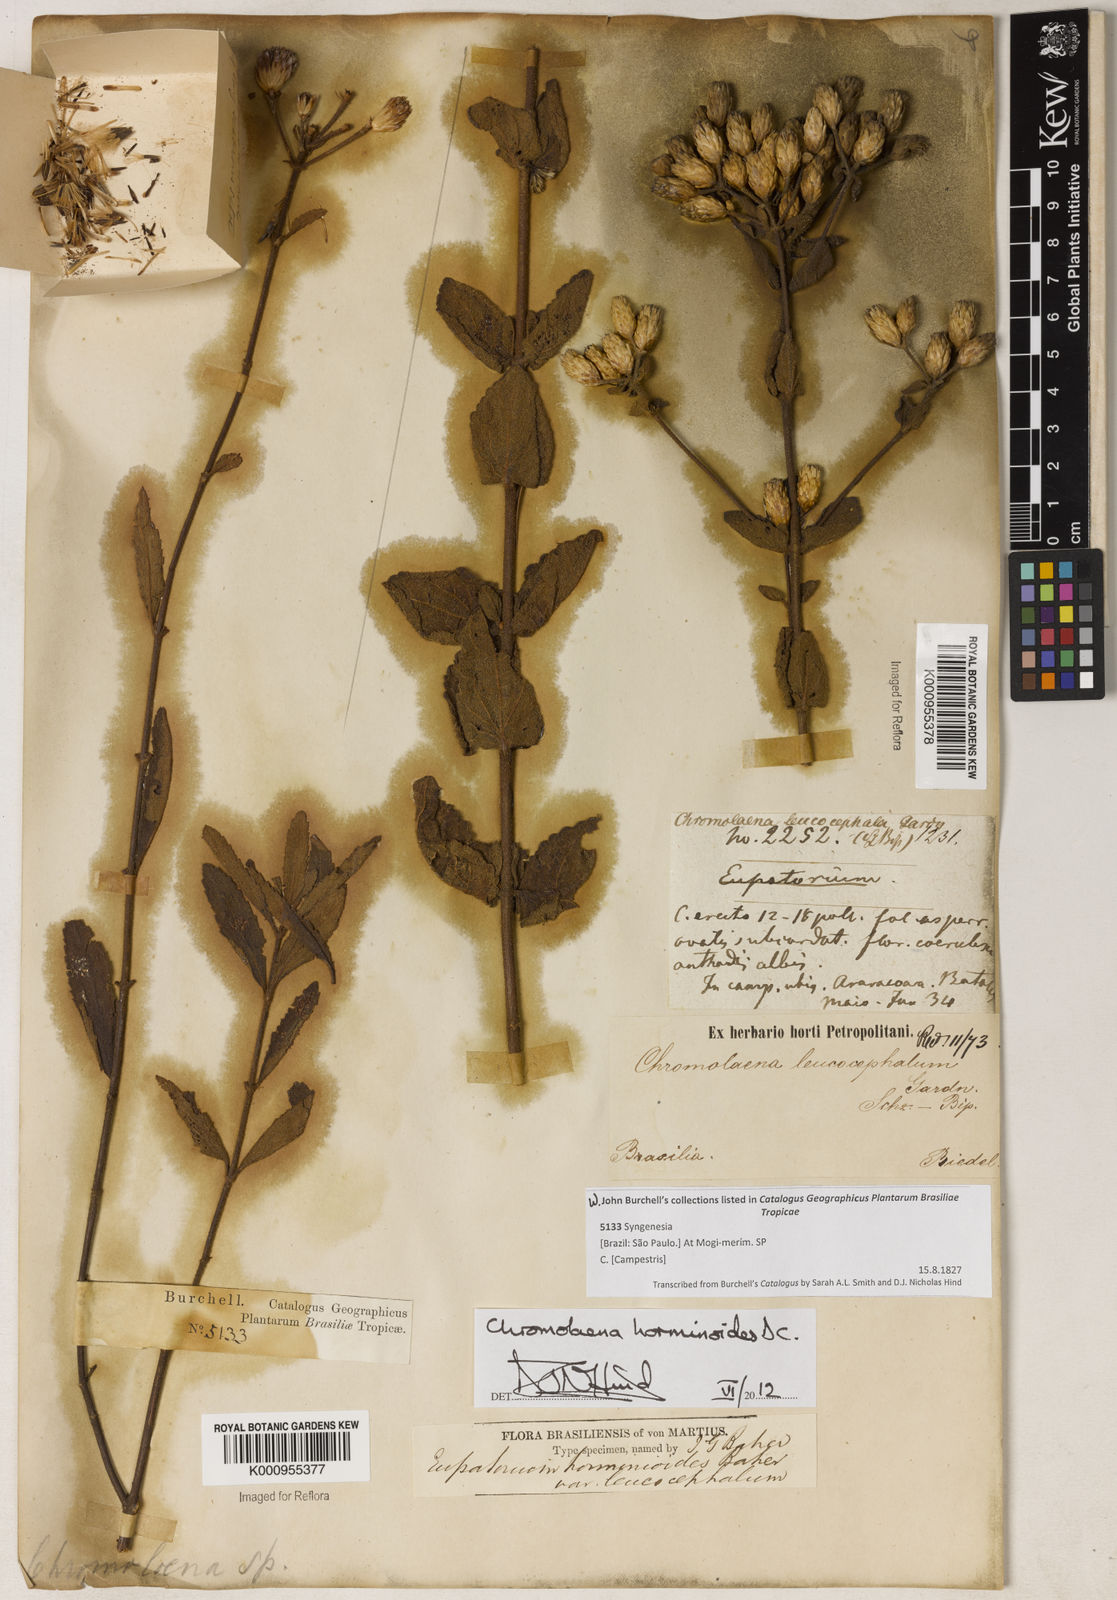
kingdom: Plantae
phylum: Tracheophyta
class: Magnoliopsida
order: Asterales
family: Asteraceae
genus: Chromolaena
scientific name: Chromolaena
